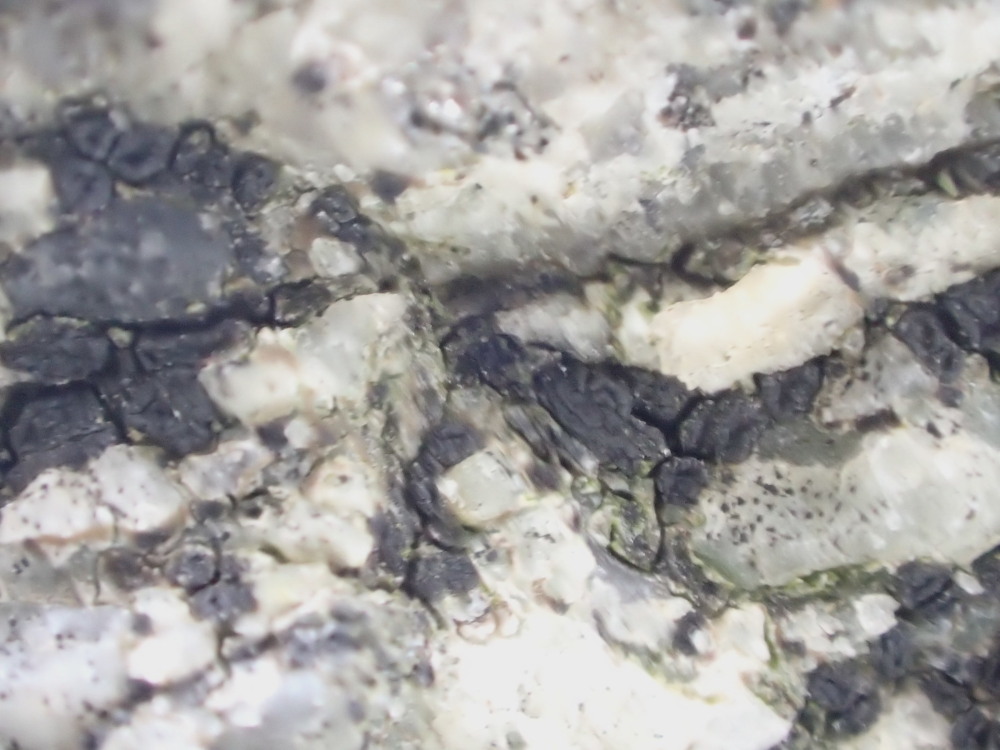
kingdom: Fungi
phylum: Ascomycota
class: Lecanoromycetes
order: Acarosporales
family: Acarosporaceae
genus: Acarospora
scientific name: Acarospora privigna
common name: sort foldekantlav
